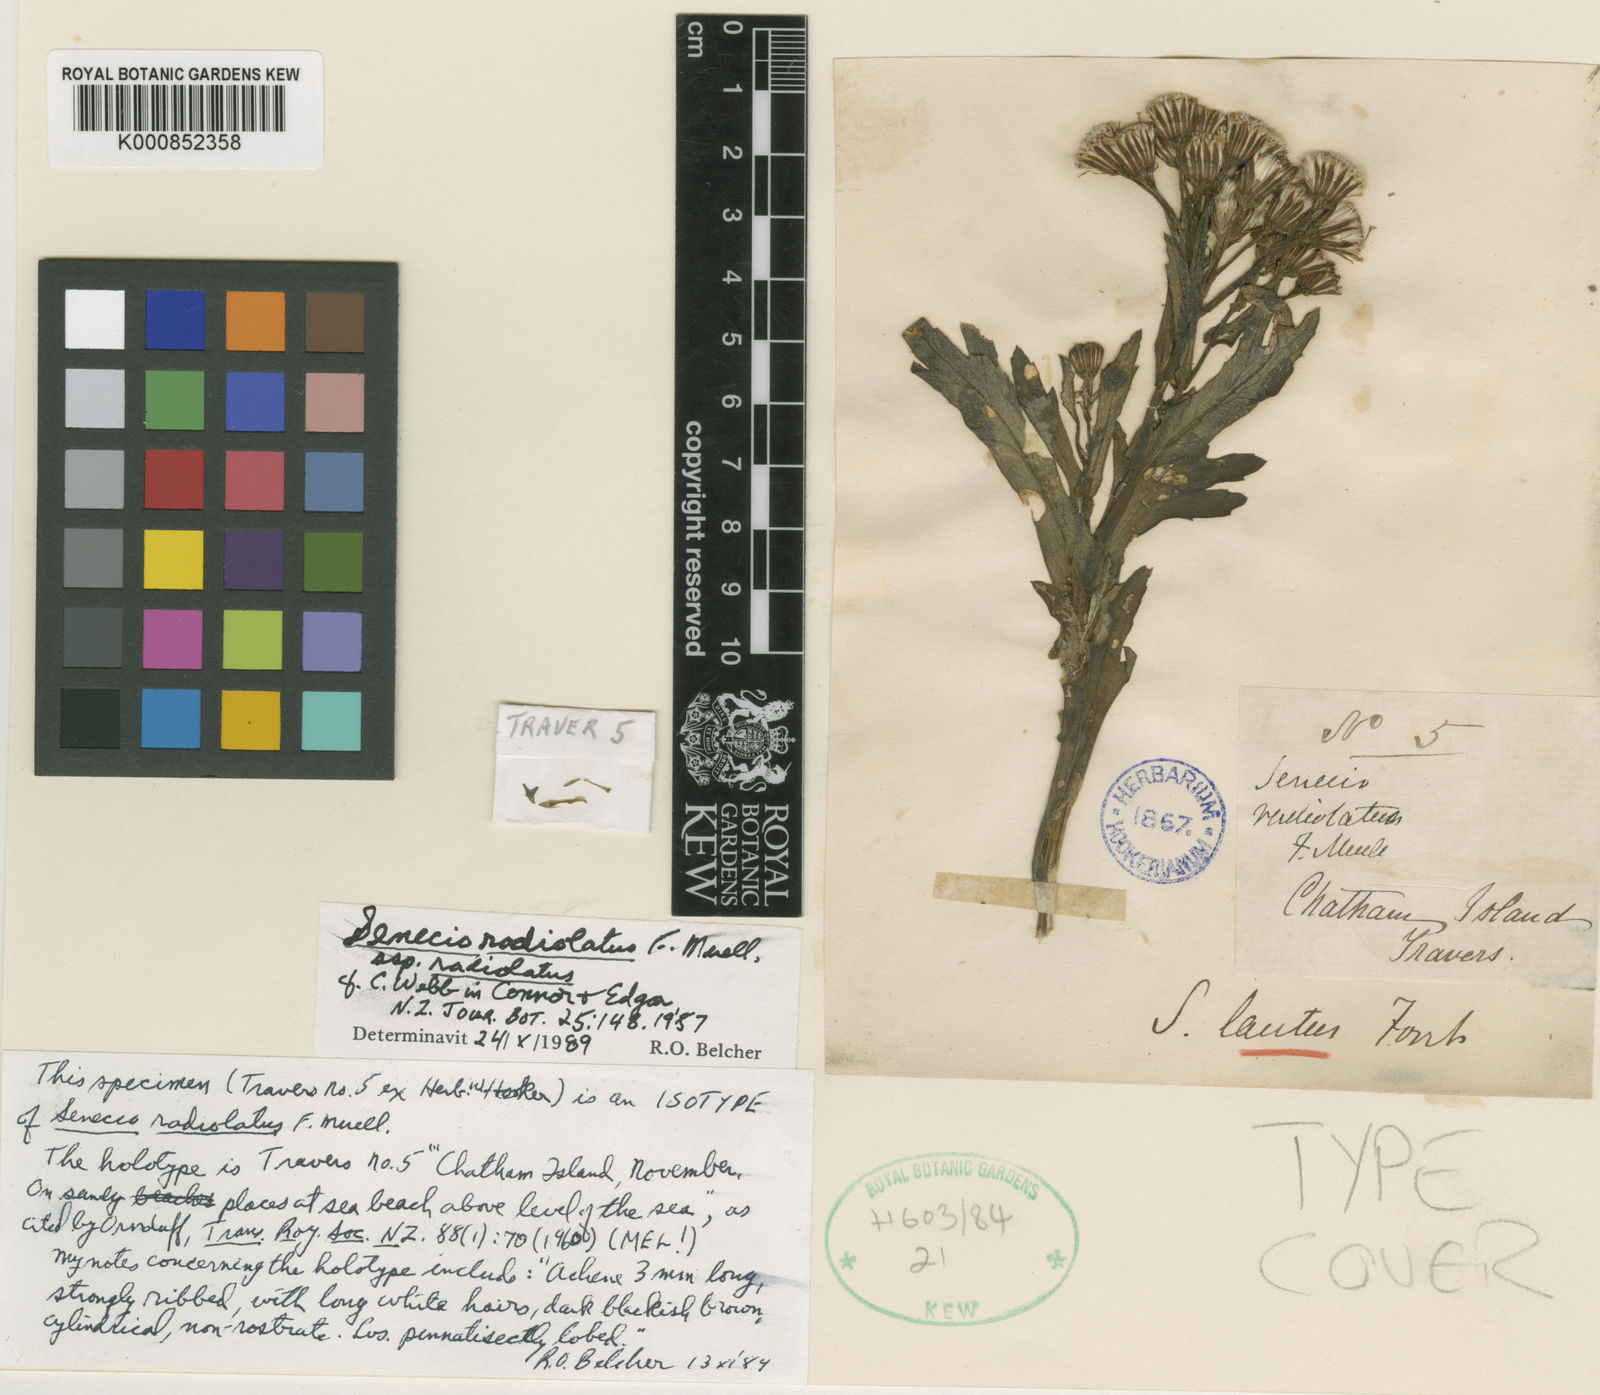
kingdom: Plantae
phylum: Tracheophyta
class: Magnoliopsida
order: Asterales
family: Asteraceae
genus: Senecio
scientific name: Senecio radiolatus
